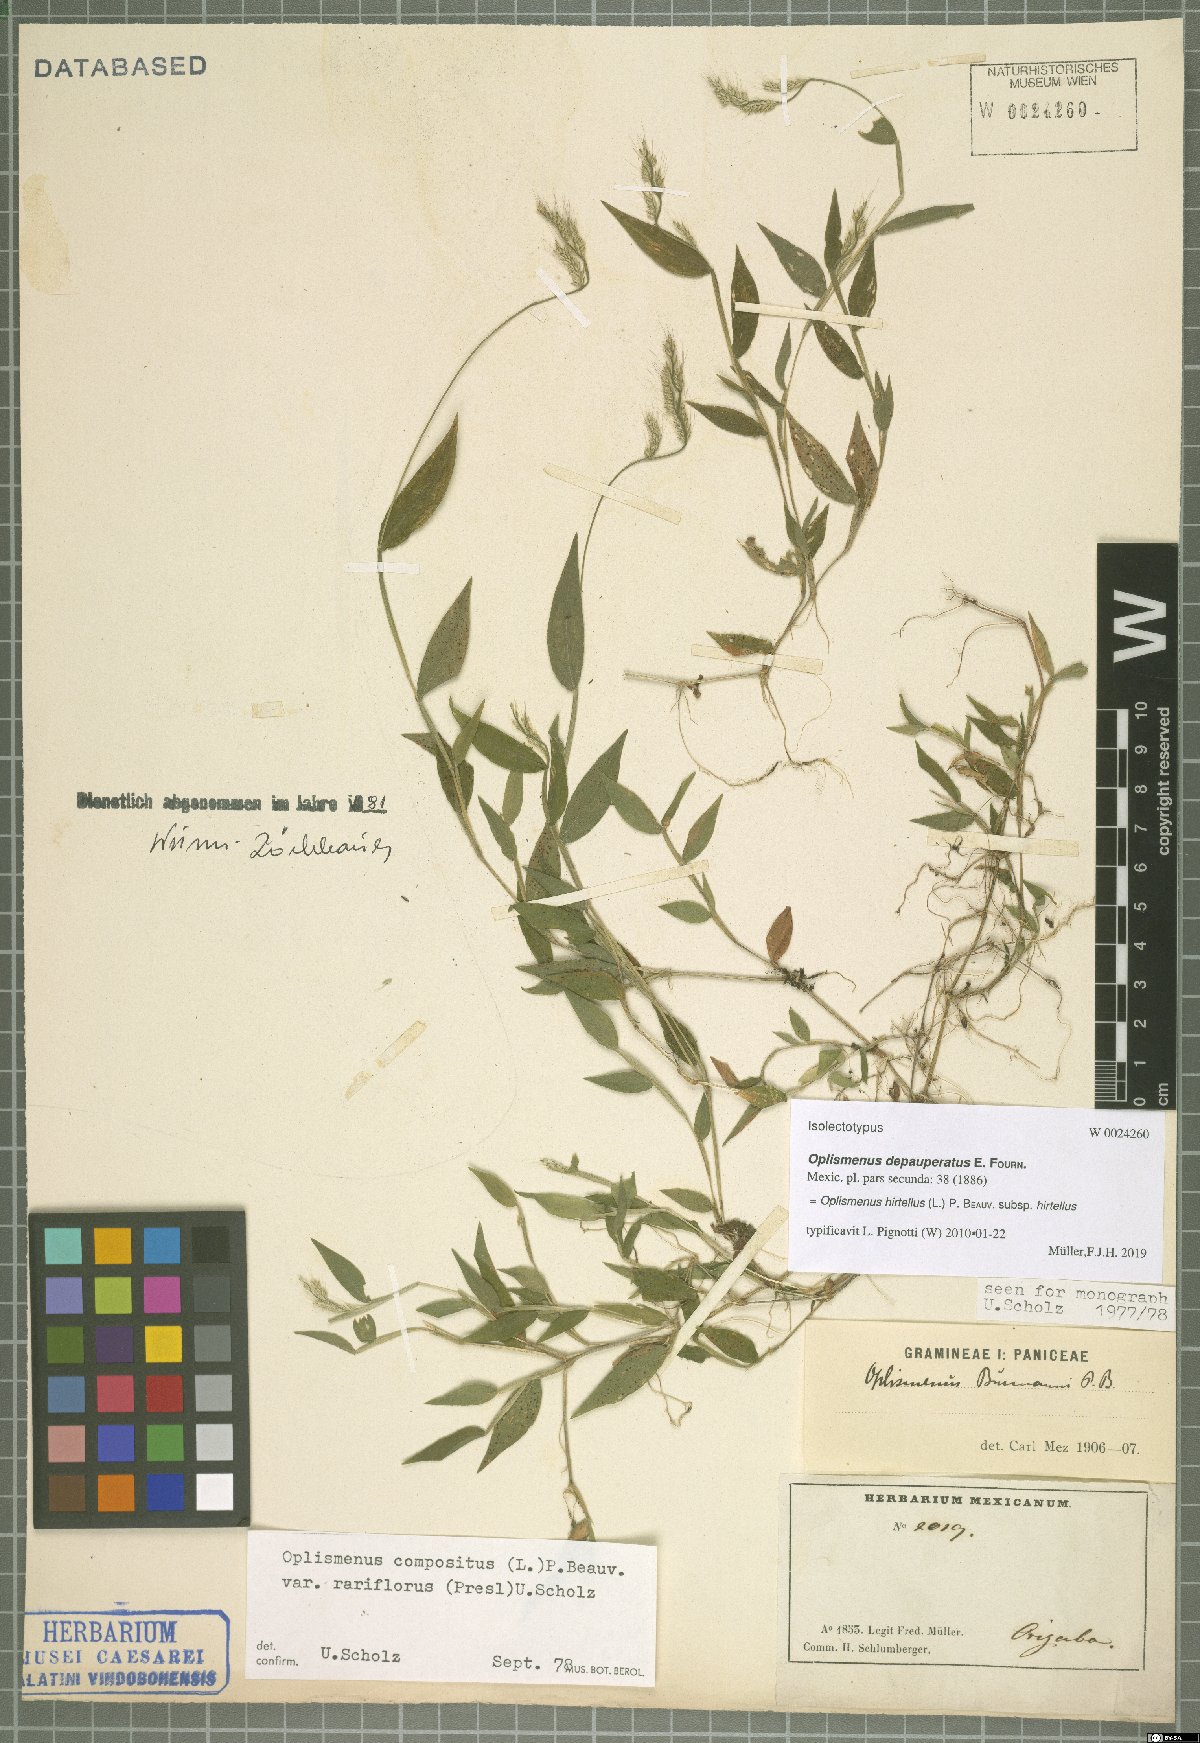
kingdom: Plantae
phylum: Tracheophyta
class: Liliopsida
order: Poales
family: Poaceae
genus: Oplismenus
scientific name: Oplismenus hirtellus
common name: Basketgrass
